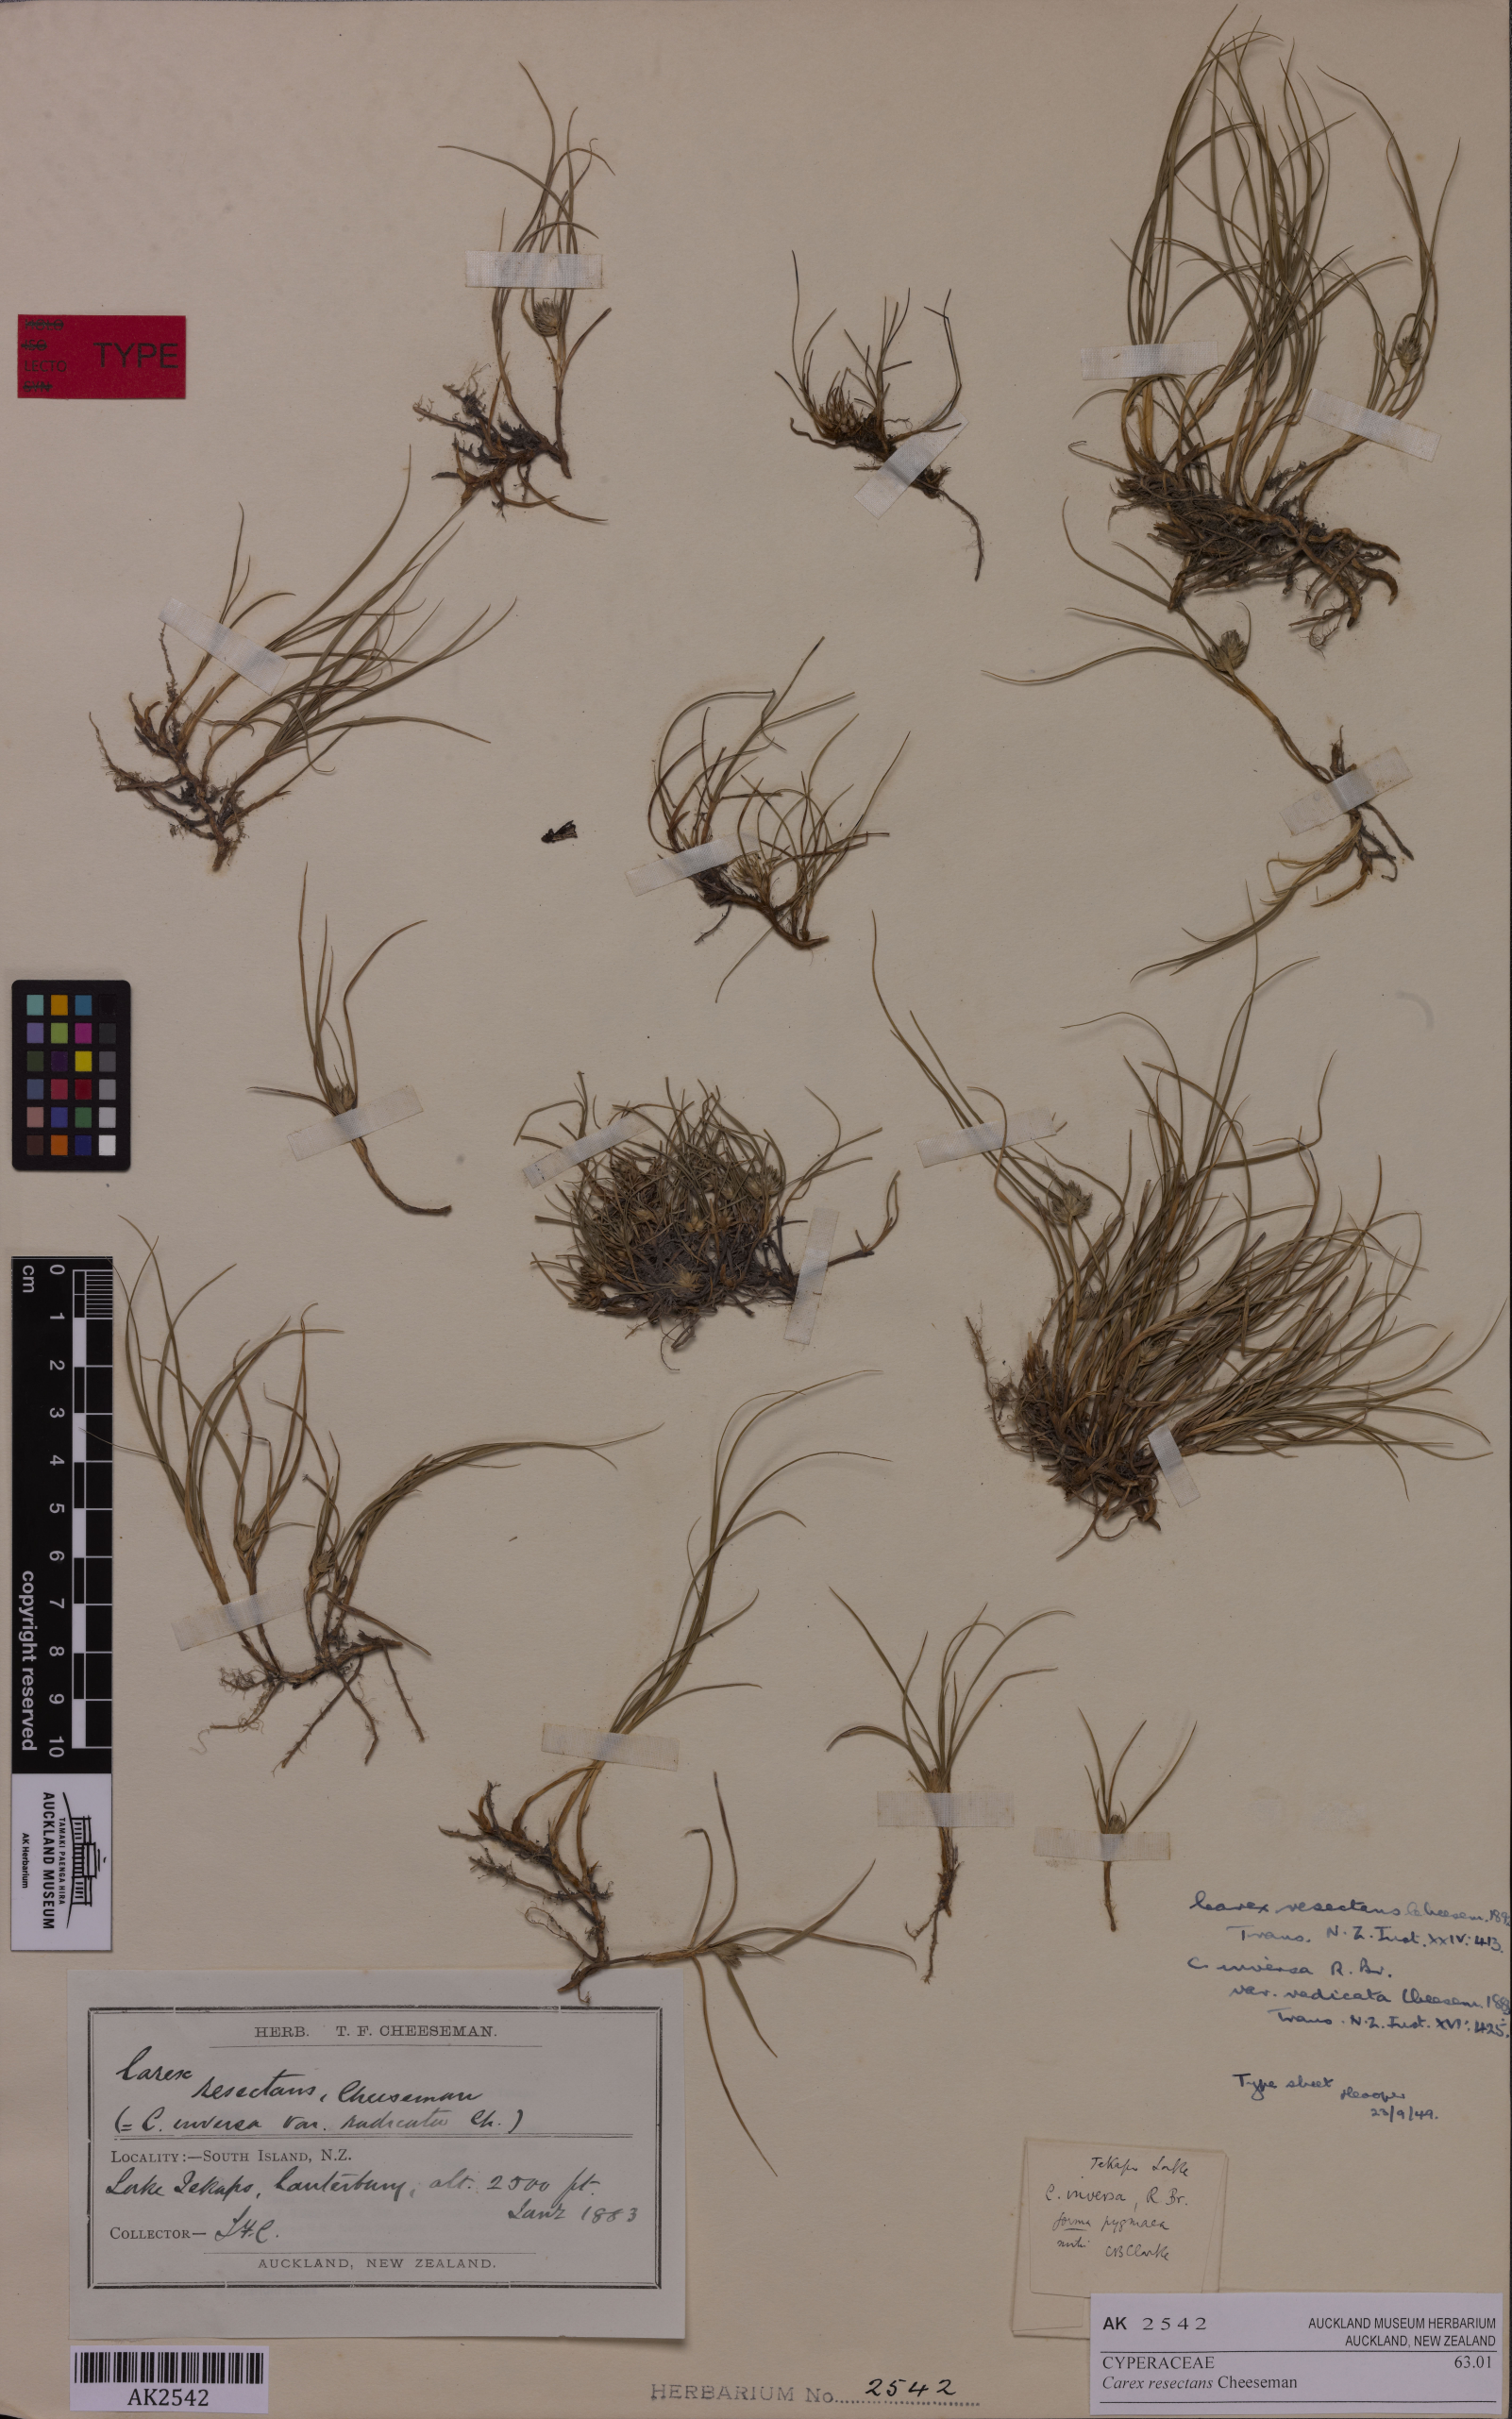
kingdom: Plantae
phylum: Tracheophyta
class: Liliopsida
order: Poales
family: Cyperaceae
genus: Carex
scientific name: Carex resectans
